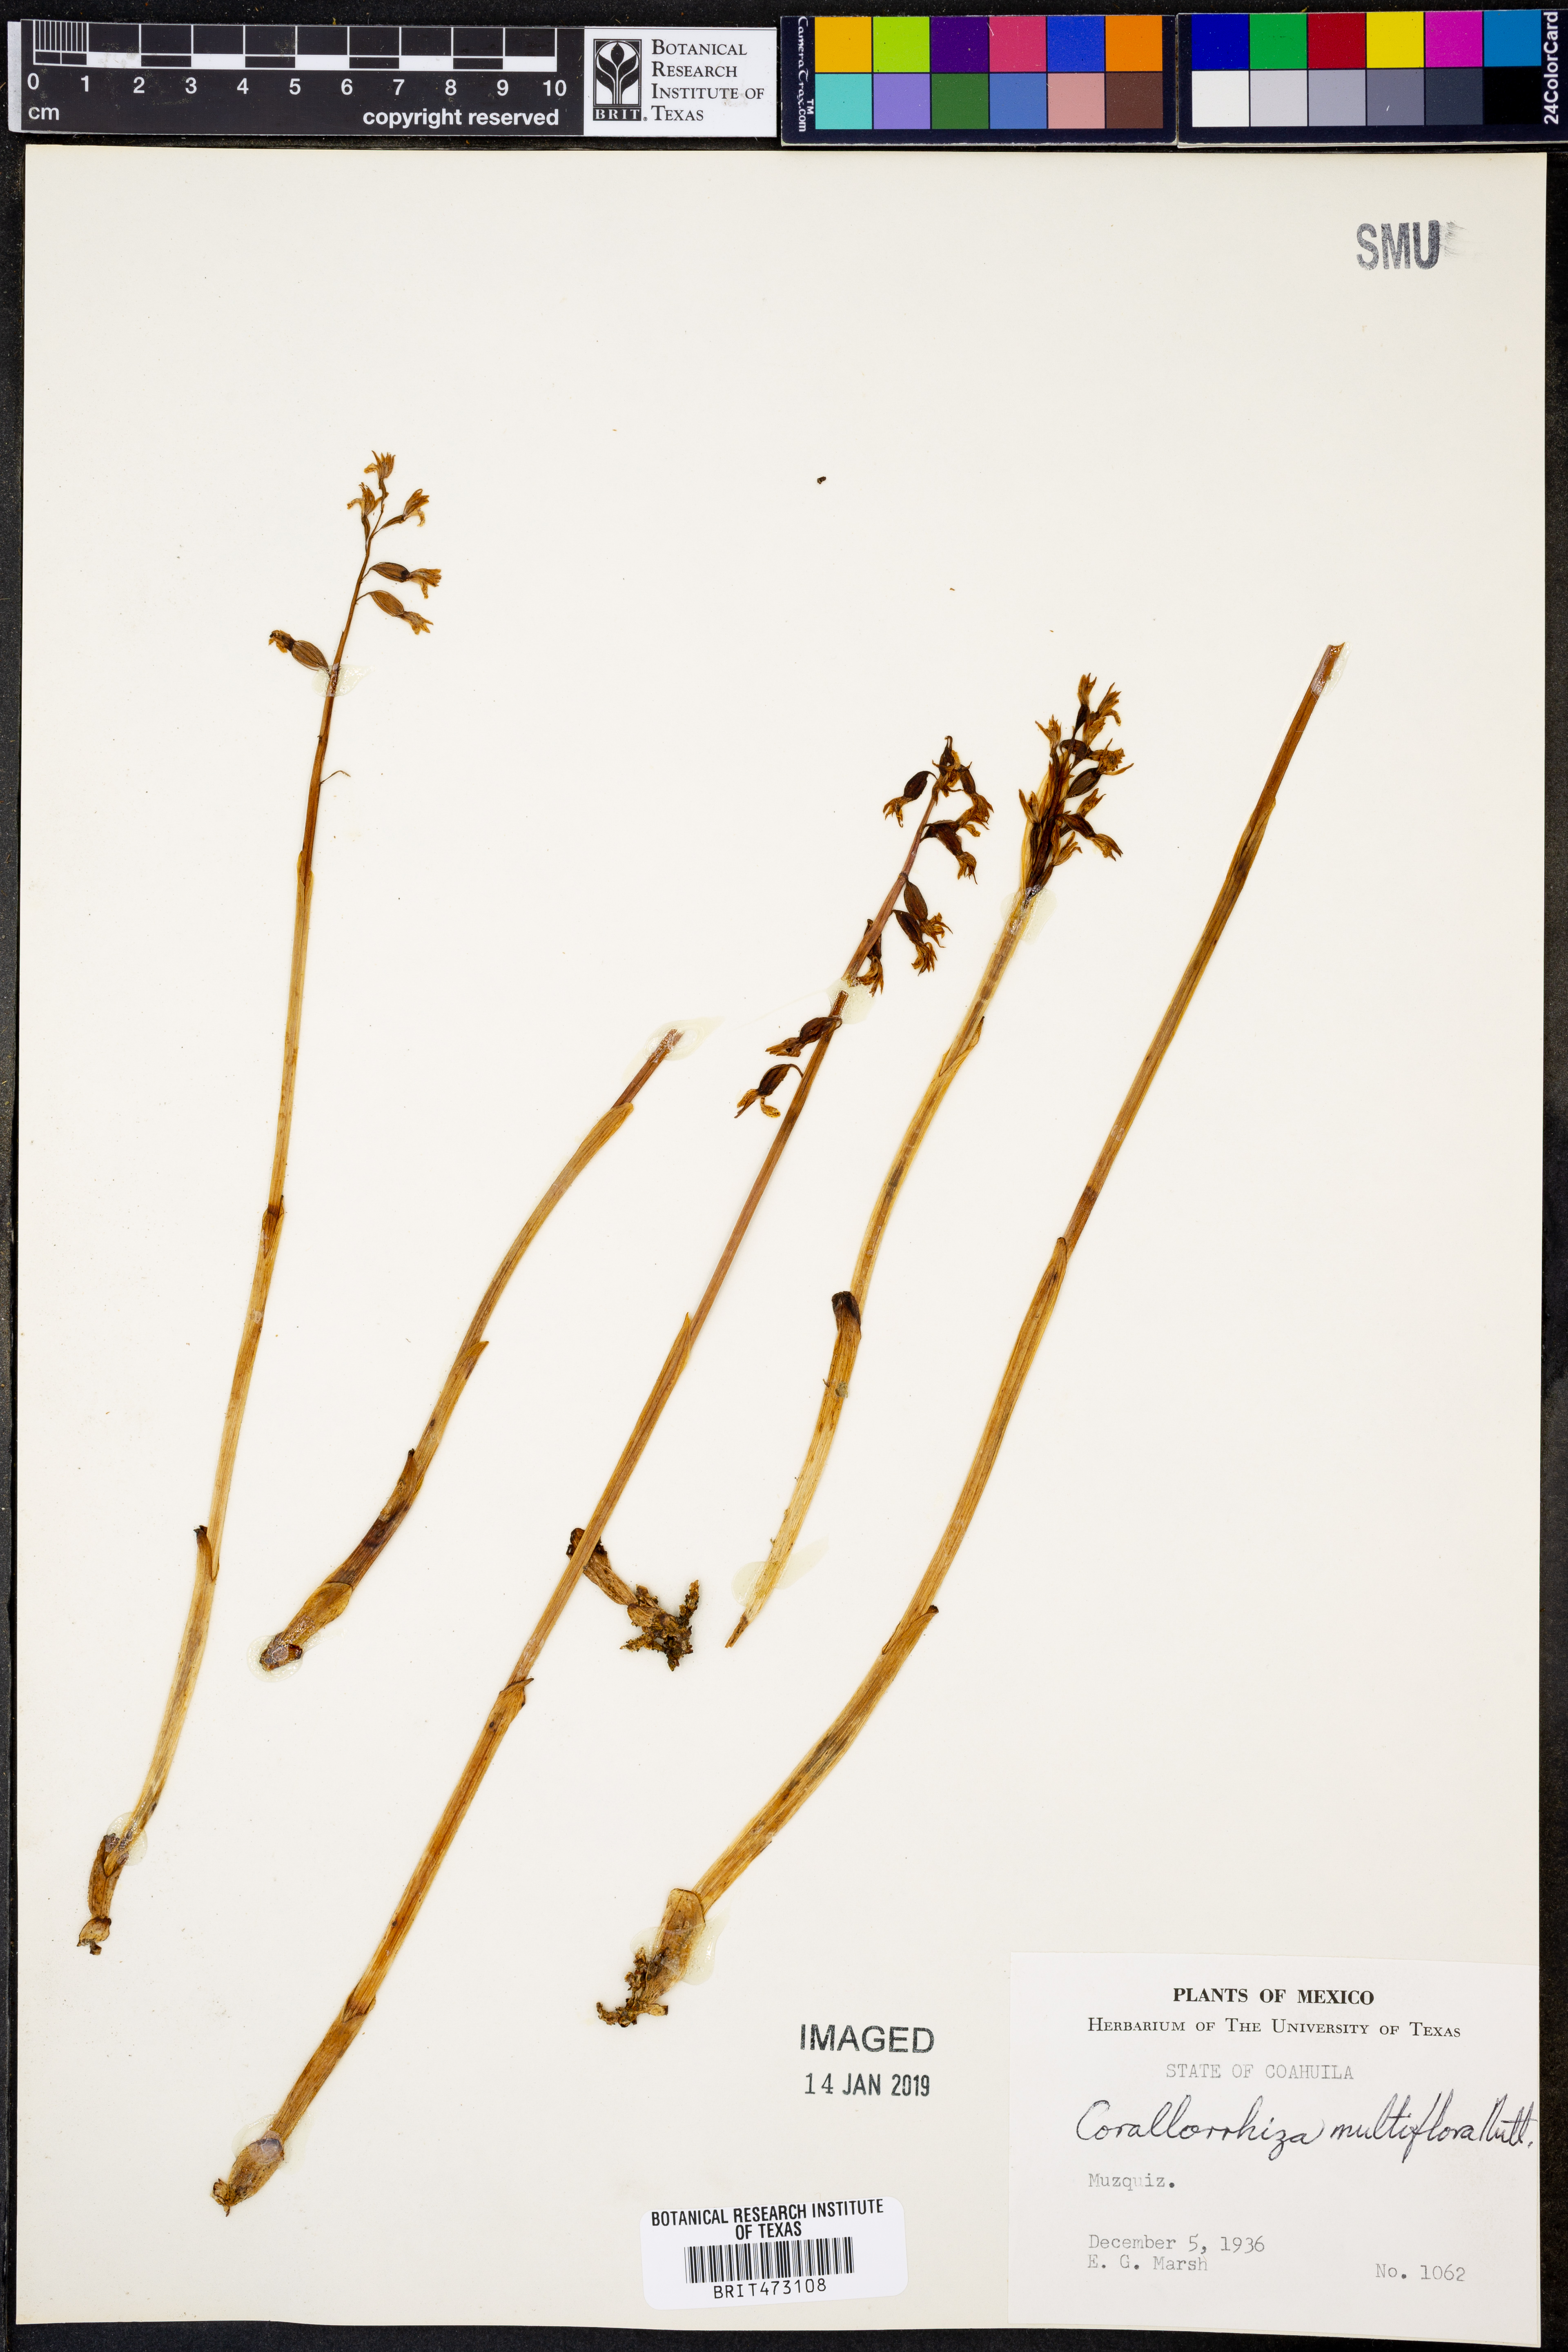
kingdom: Plantae
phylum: Tracheophyta
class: Liliopsida
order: Asparagales
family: Orchidaceae
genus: Corallorhiza
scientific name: Corallorhiza maculata
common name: Spotted coralroot
